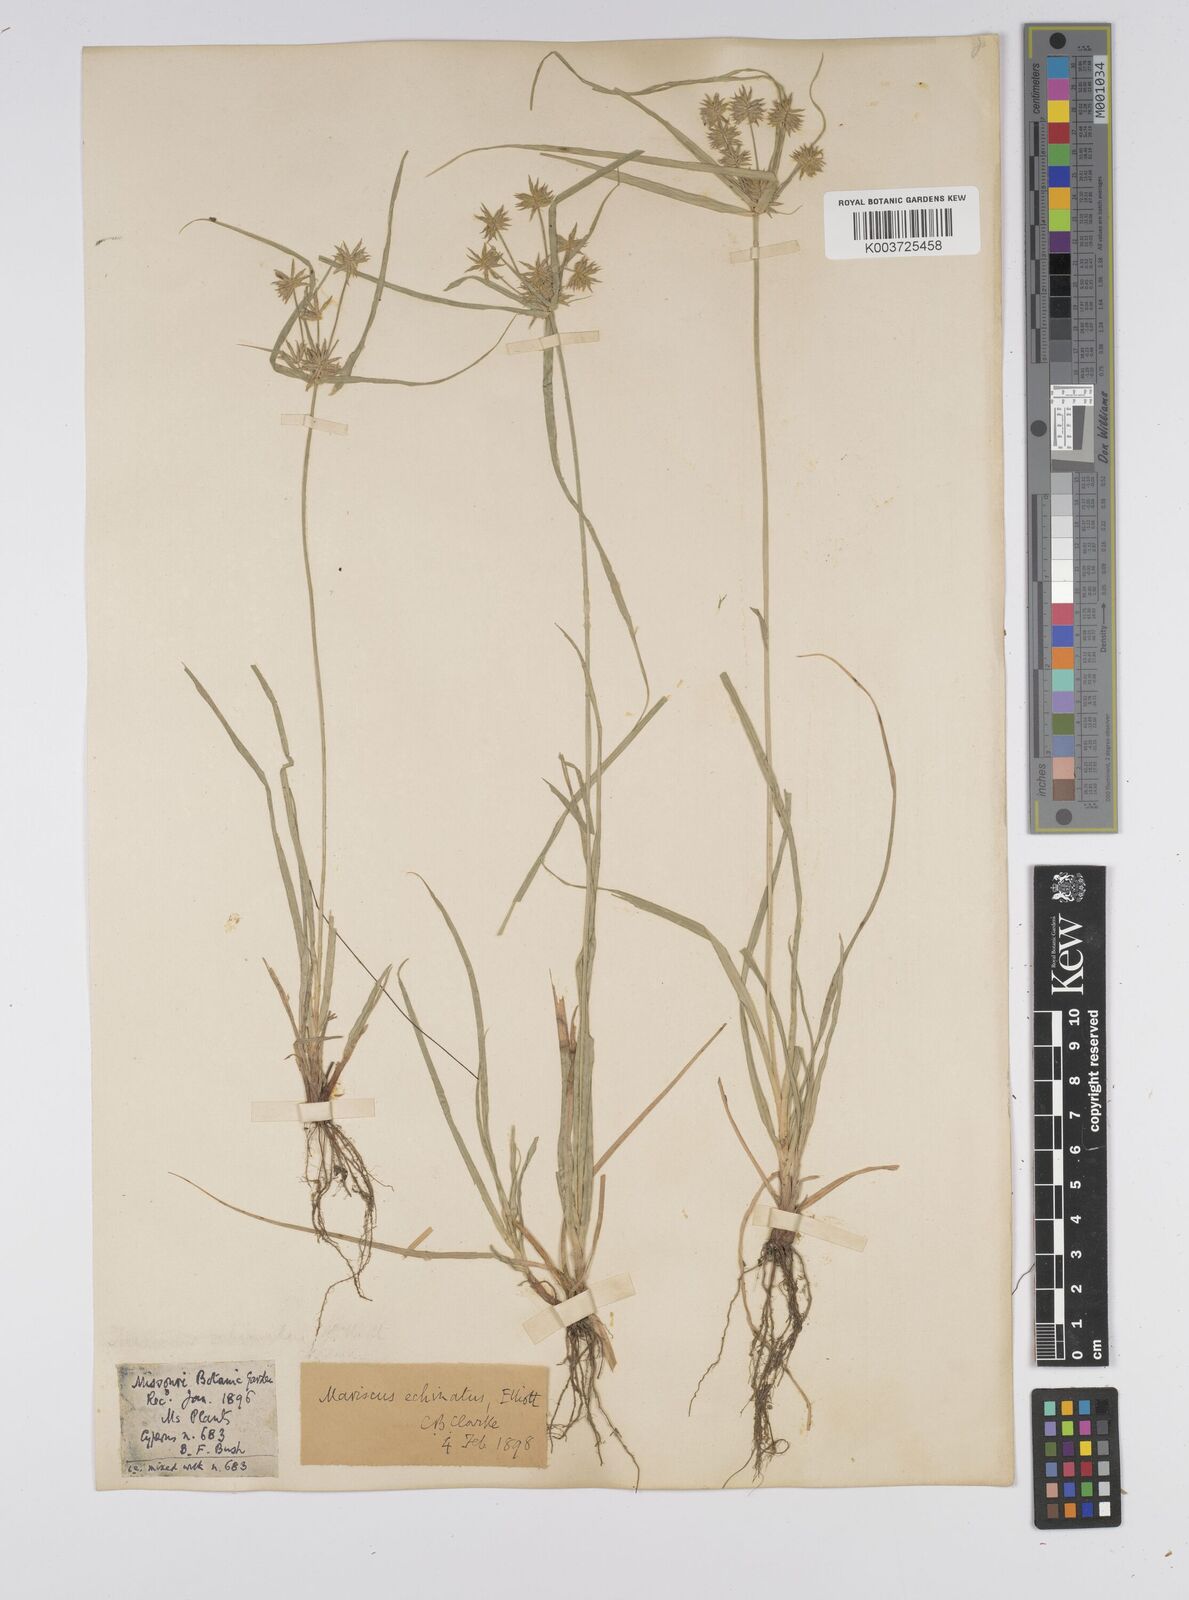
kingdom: Plantae
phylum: Tracheophyta
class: Liliopsida
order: Poales
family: Cyperaceae
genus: Cyperus
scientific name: Cyperus luzulae
